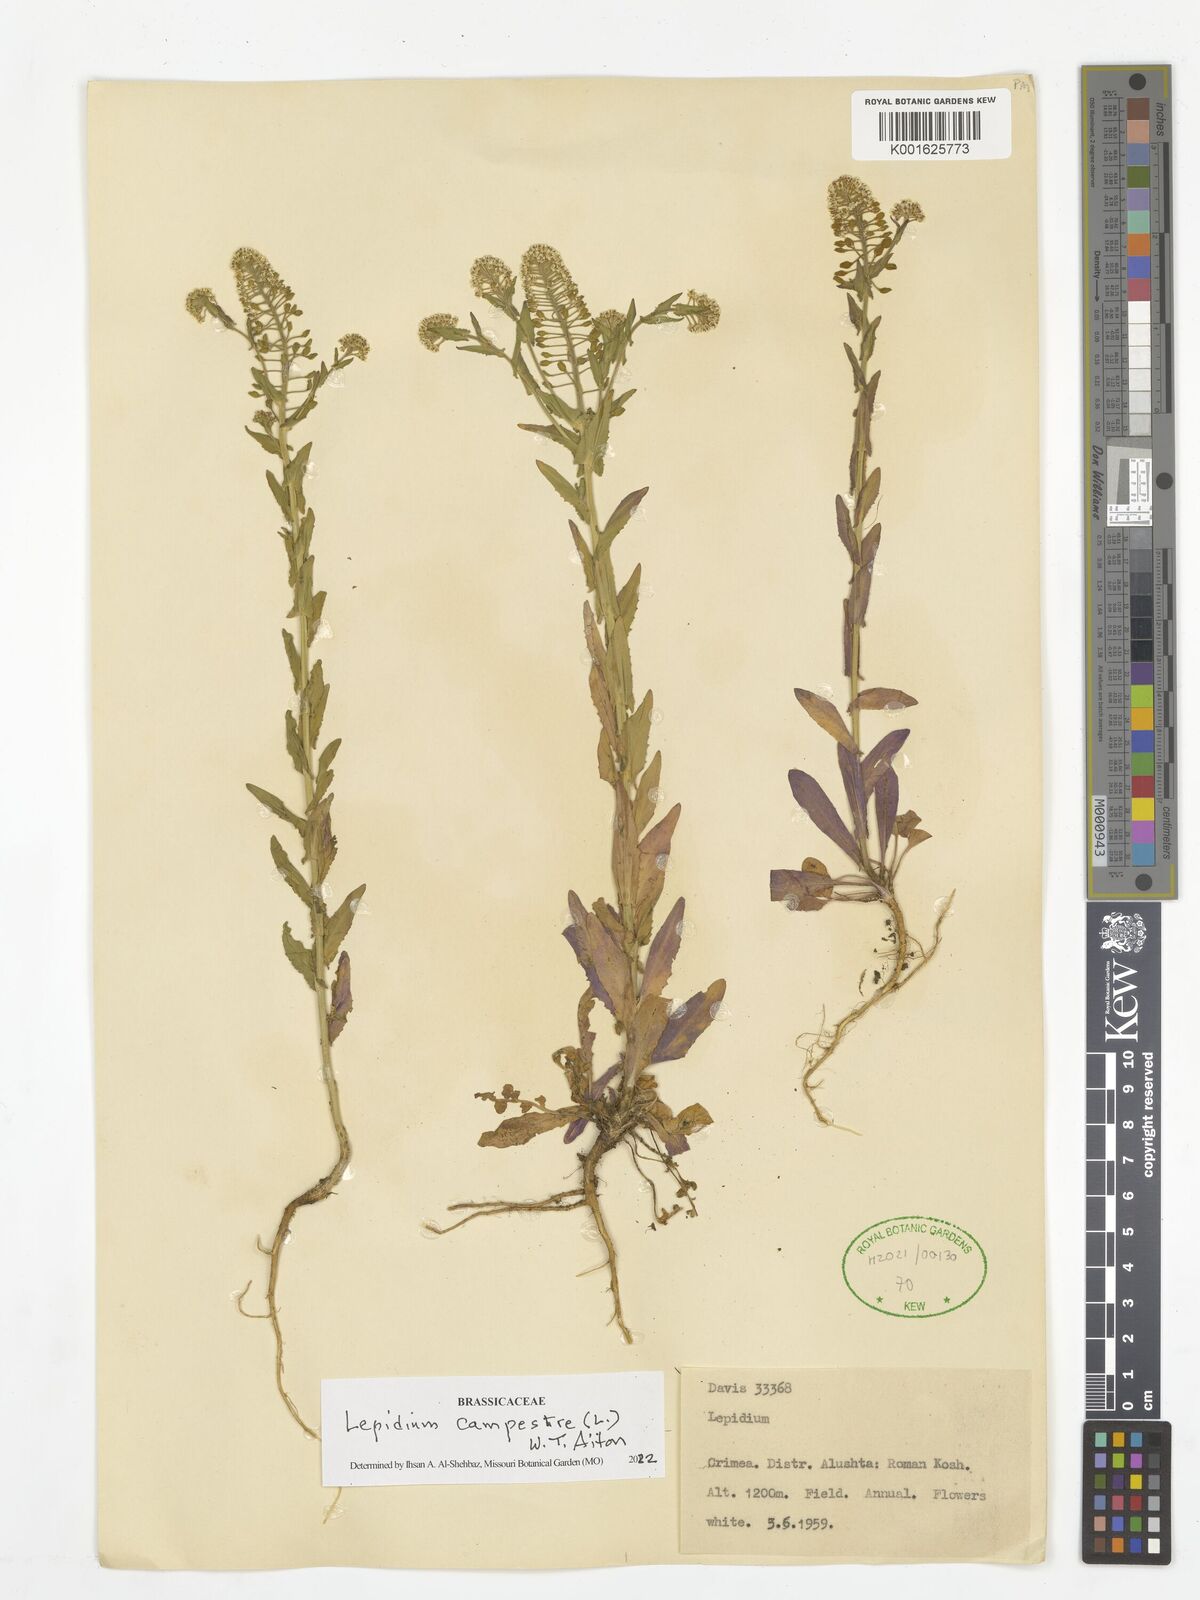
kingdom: Plantae
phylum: Tracheophyta
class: Magnoliopsida
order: Brassicales
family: Brassicaceae
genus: Lepidium
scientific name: Lepidium campestre
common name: Field pepperwort
